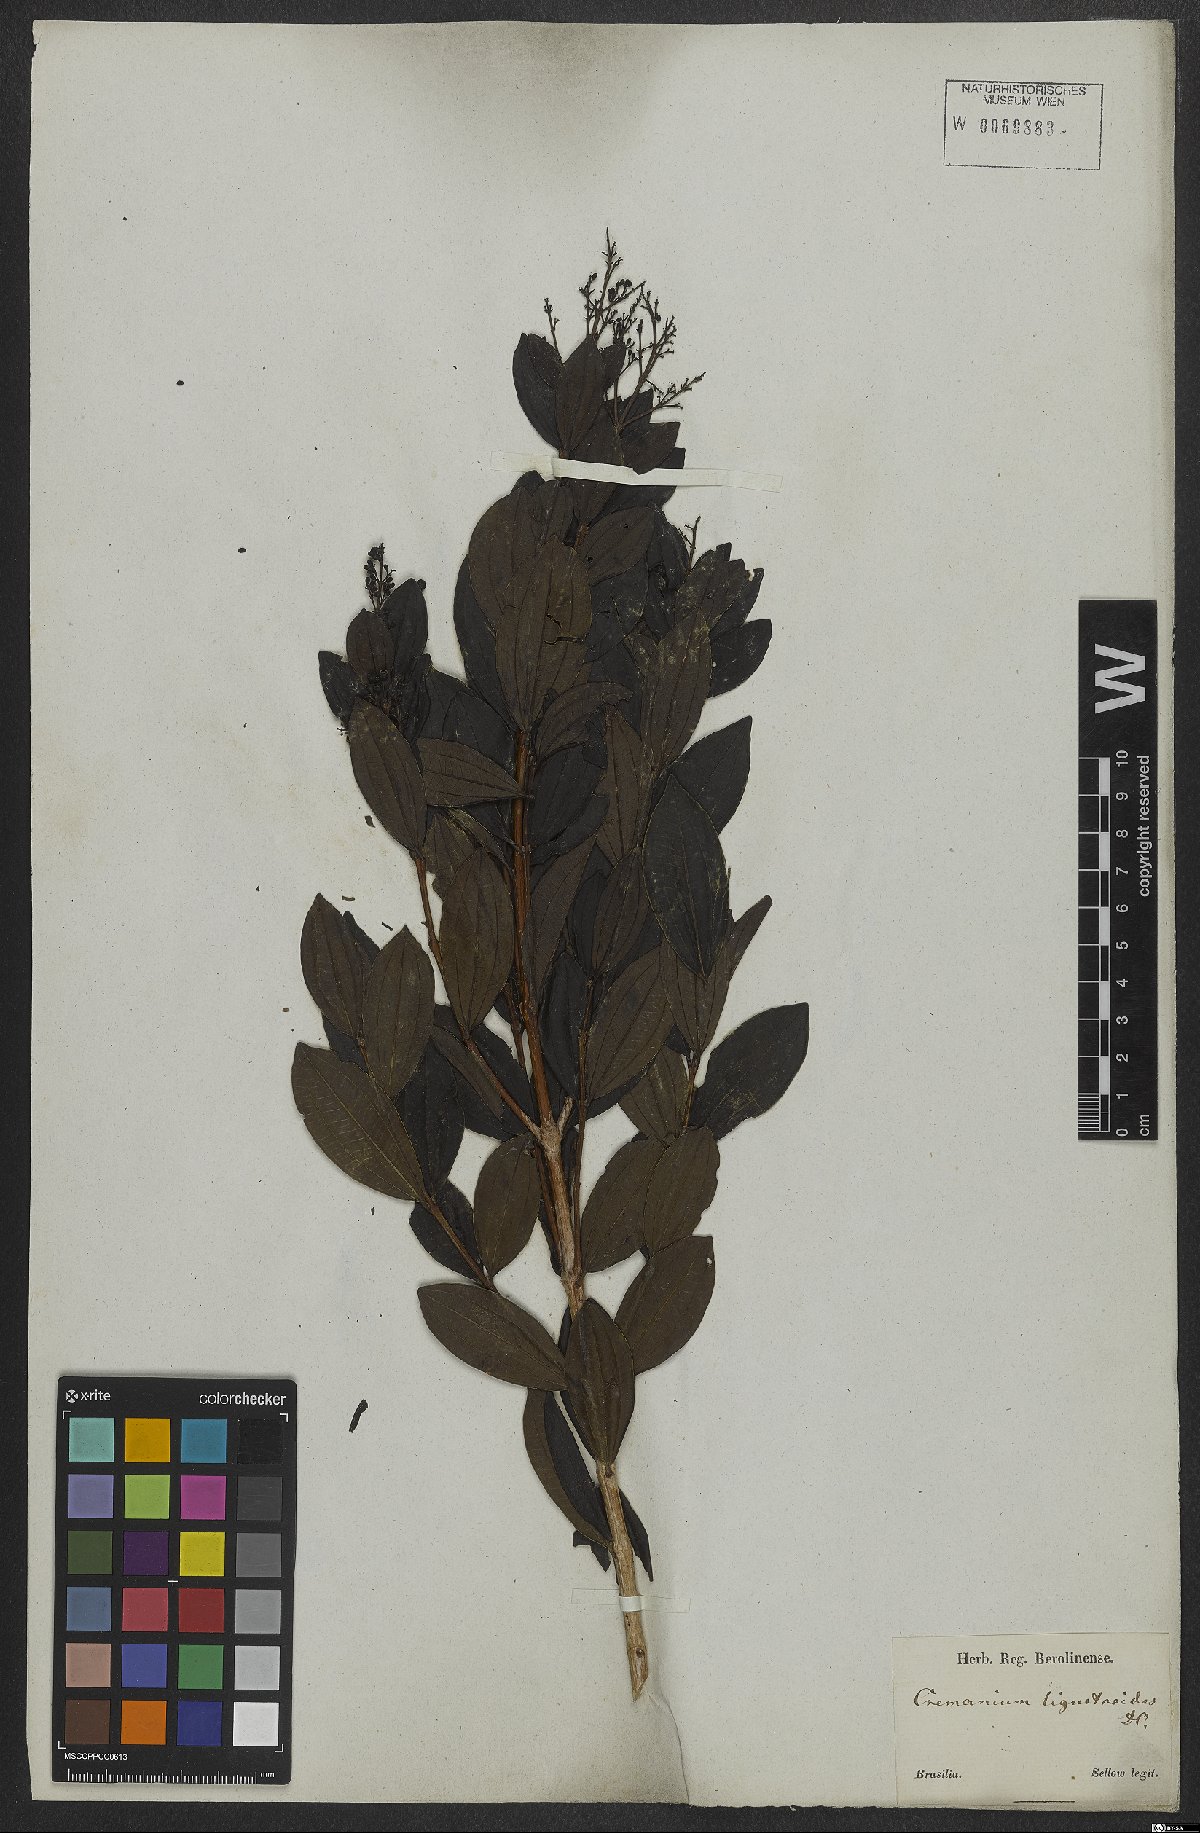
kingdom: Plantae
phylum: Tracheophyta
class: Magnoliopsida
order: Myrtales
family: Melastomataceae
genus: Miconia
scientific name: Miconia ligustroides
